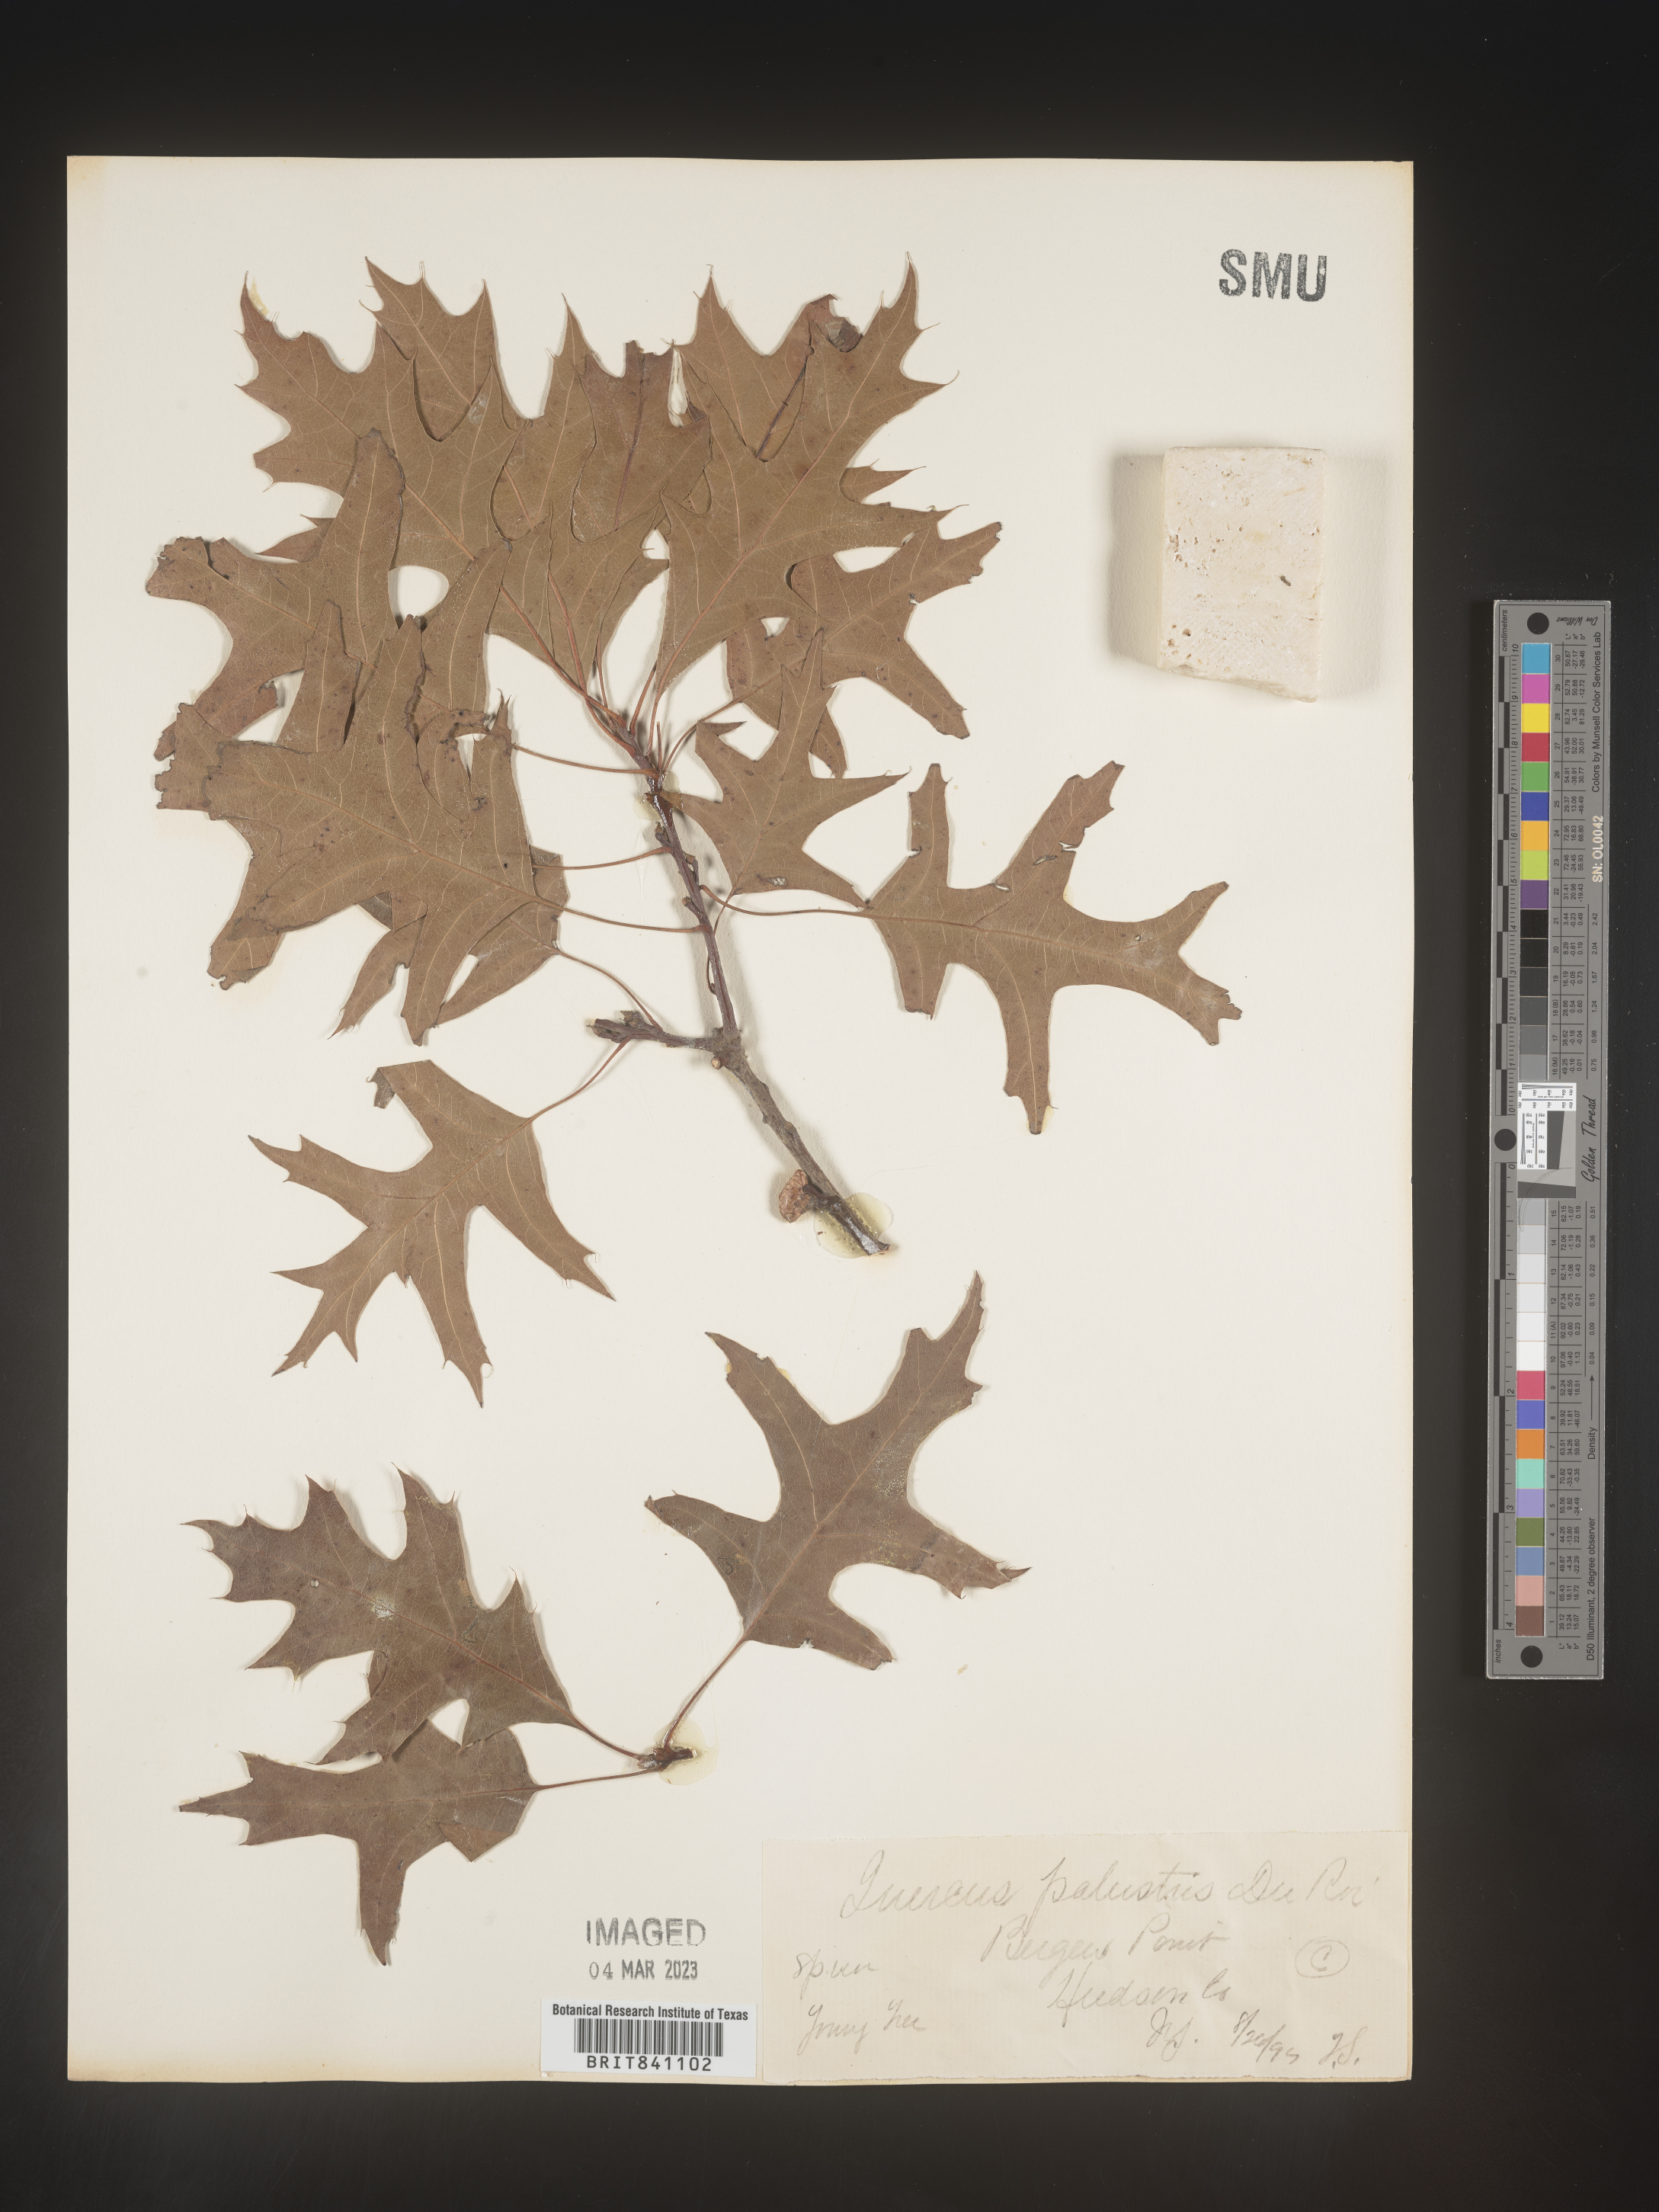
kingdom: Plantae
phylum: Tracheophyta
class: Magnoliopsida
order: Fagales
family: Fagaceae
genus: Quercus
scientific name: Quercus palustris
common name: Pin oak
